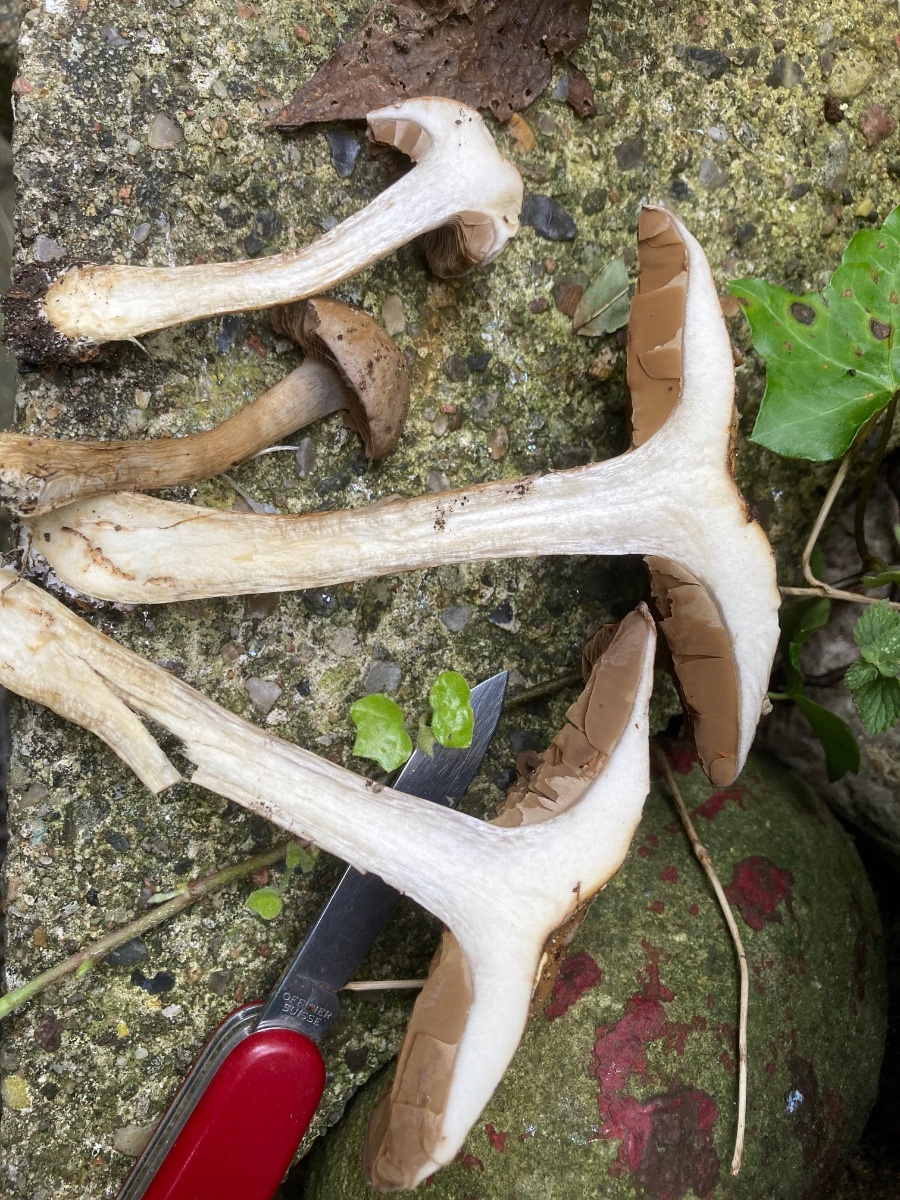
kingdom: Fungi
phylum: Basidiomycota
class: Agaricomycetes
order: Agaricales
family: Cortinariaceae
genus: Cortinarius
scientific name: Cortinarius
